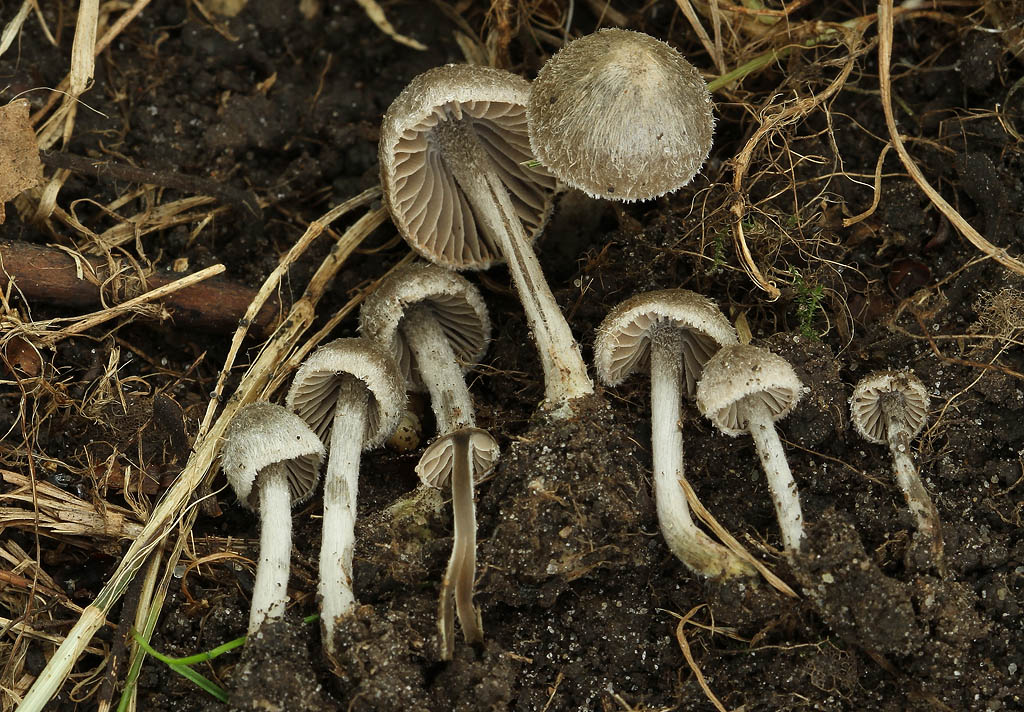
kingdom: Fungi
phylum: Basidiomycota
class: Agaricomycetes
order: Agaricales
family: Entolomataceae
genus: Entoloma
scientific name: Entoloma araneosum
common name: spindelvævs-rødblad
